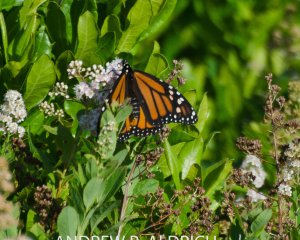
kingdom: Animalia
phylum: Arthropoda
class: Insecta
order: Lepidoptera
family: Nymphalidae
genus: Danaus
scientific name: Danaus plexippus
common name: Monarch
